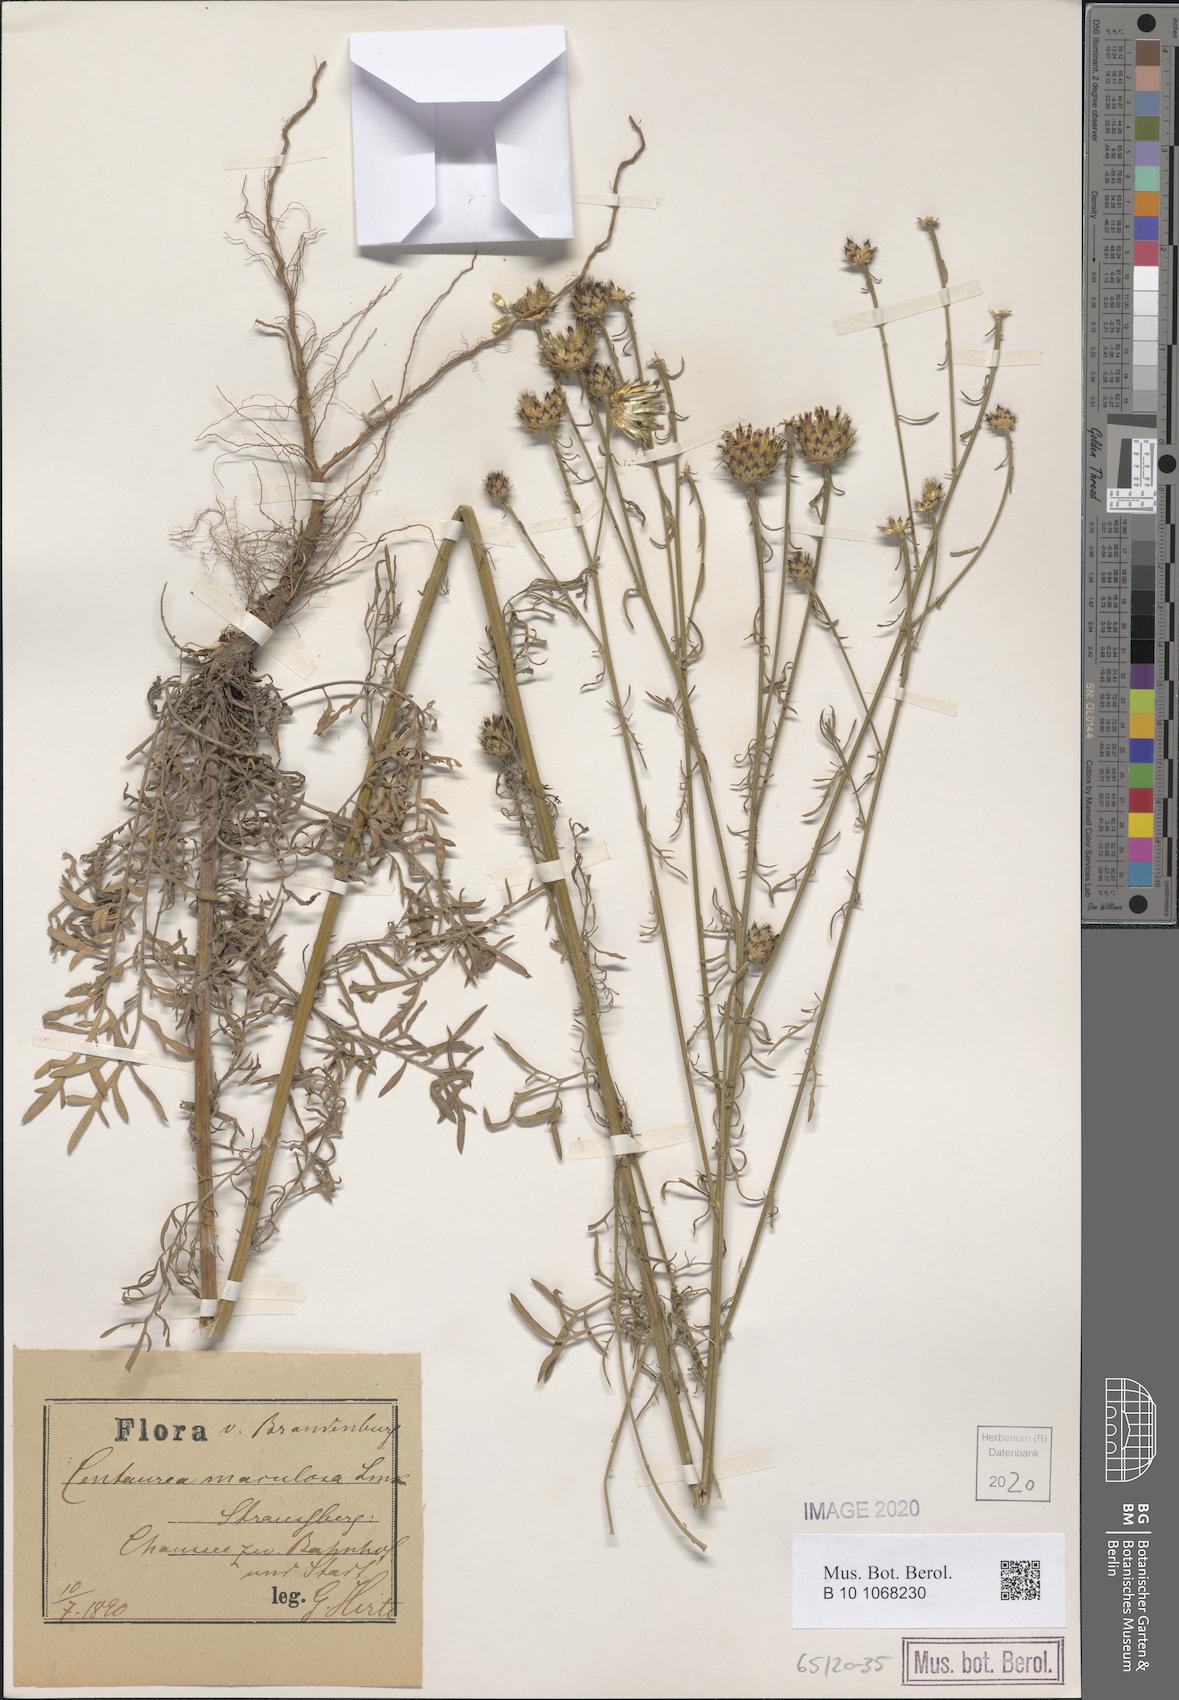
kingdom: Plantae
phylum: Tracheophyta
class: Magnoliopsida
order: Asterales
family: Asteraceae
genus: Centaurea
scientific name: Centaurea stoebe
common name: Spotted knapweed
